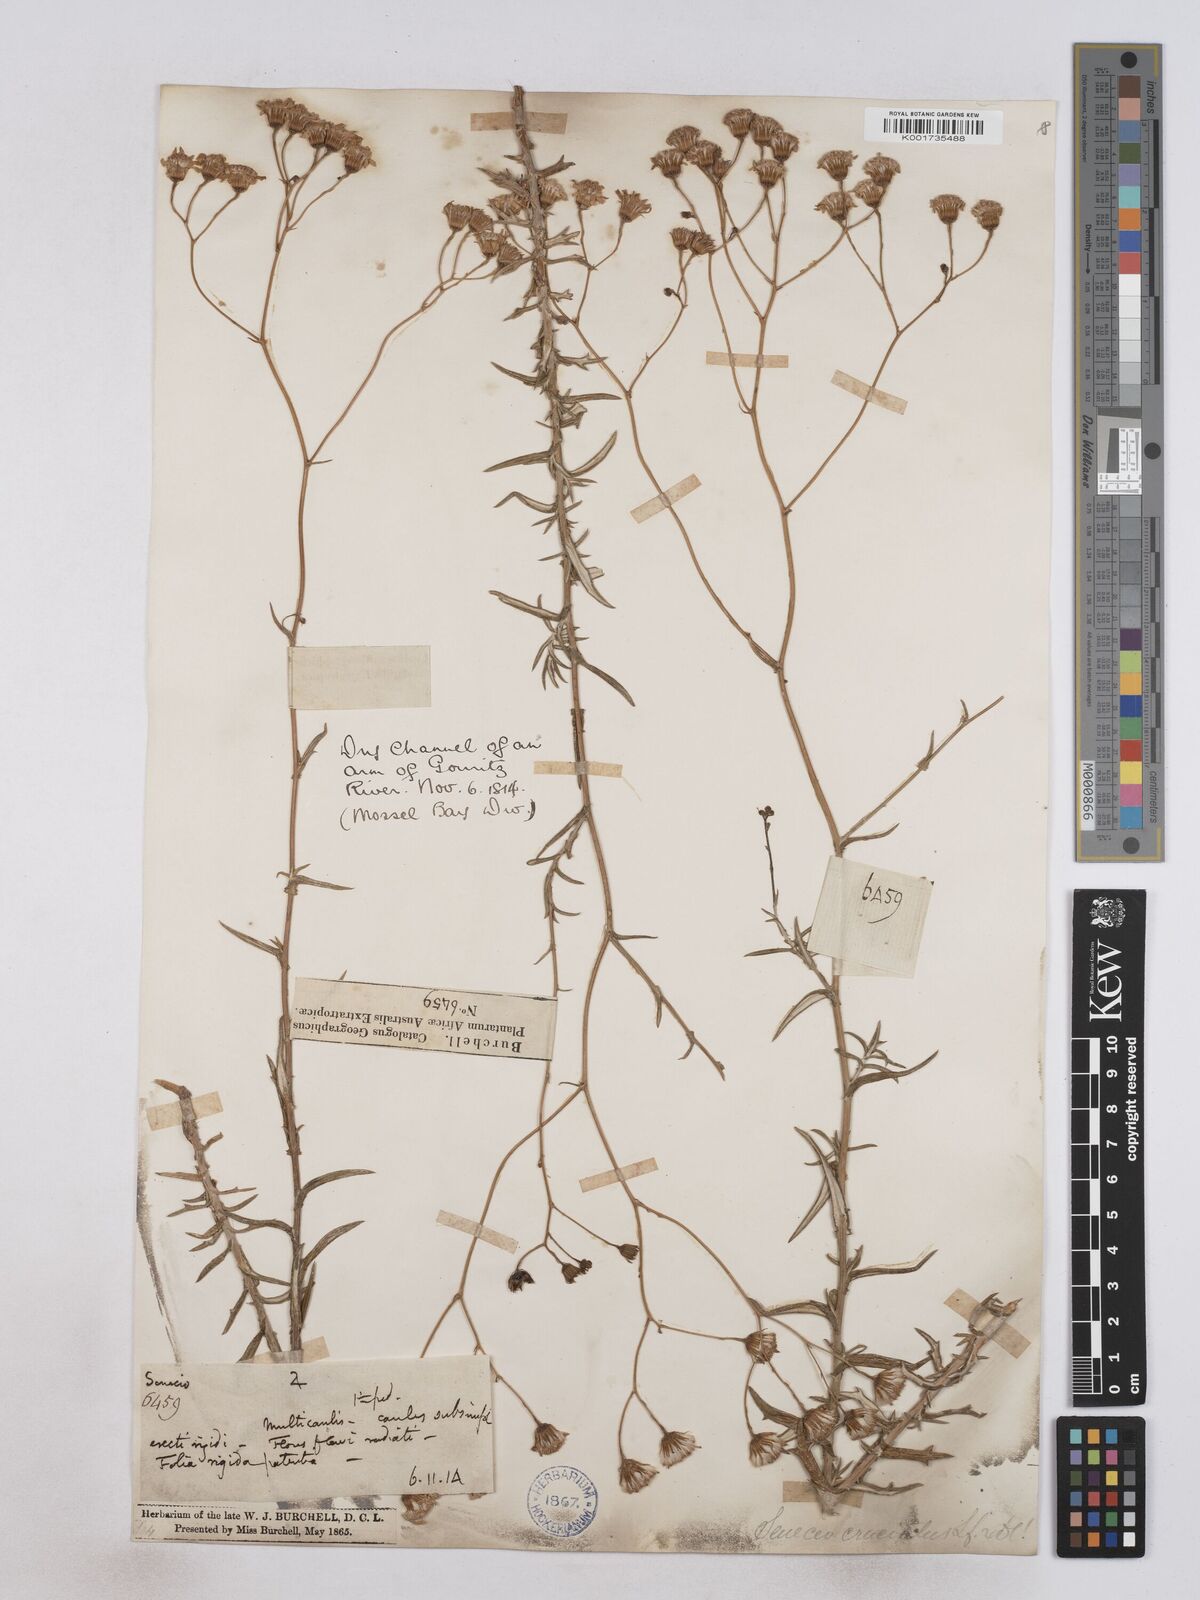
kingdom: Plantae
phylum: Tracheophyta
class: Magnoliopsida
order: Asterales
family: Asteraceae
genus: Senecio
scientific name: Senecio juniperinus
